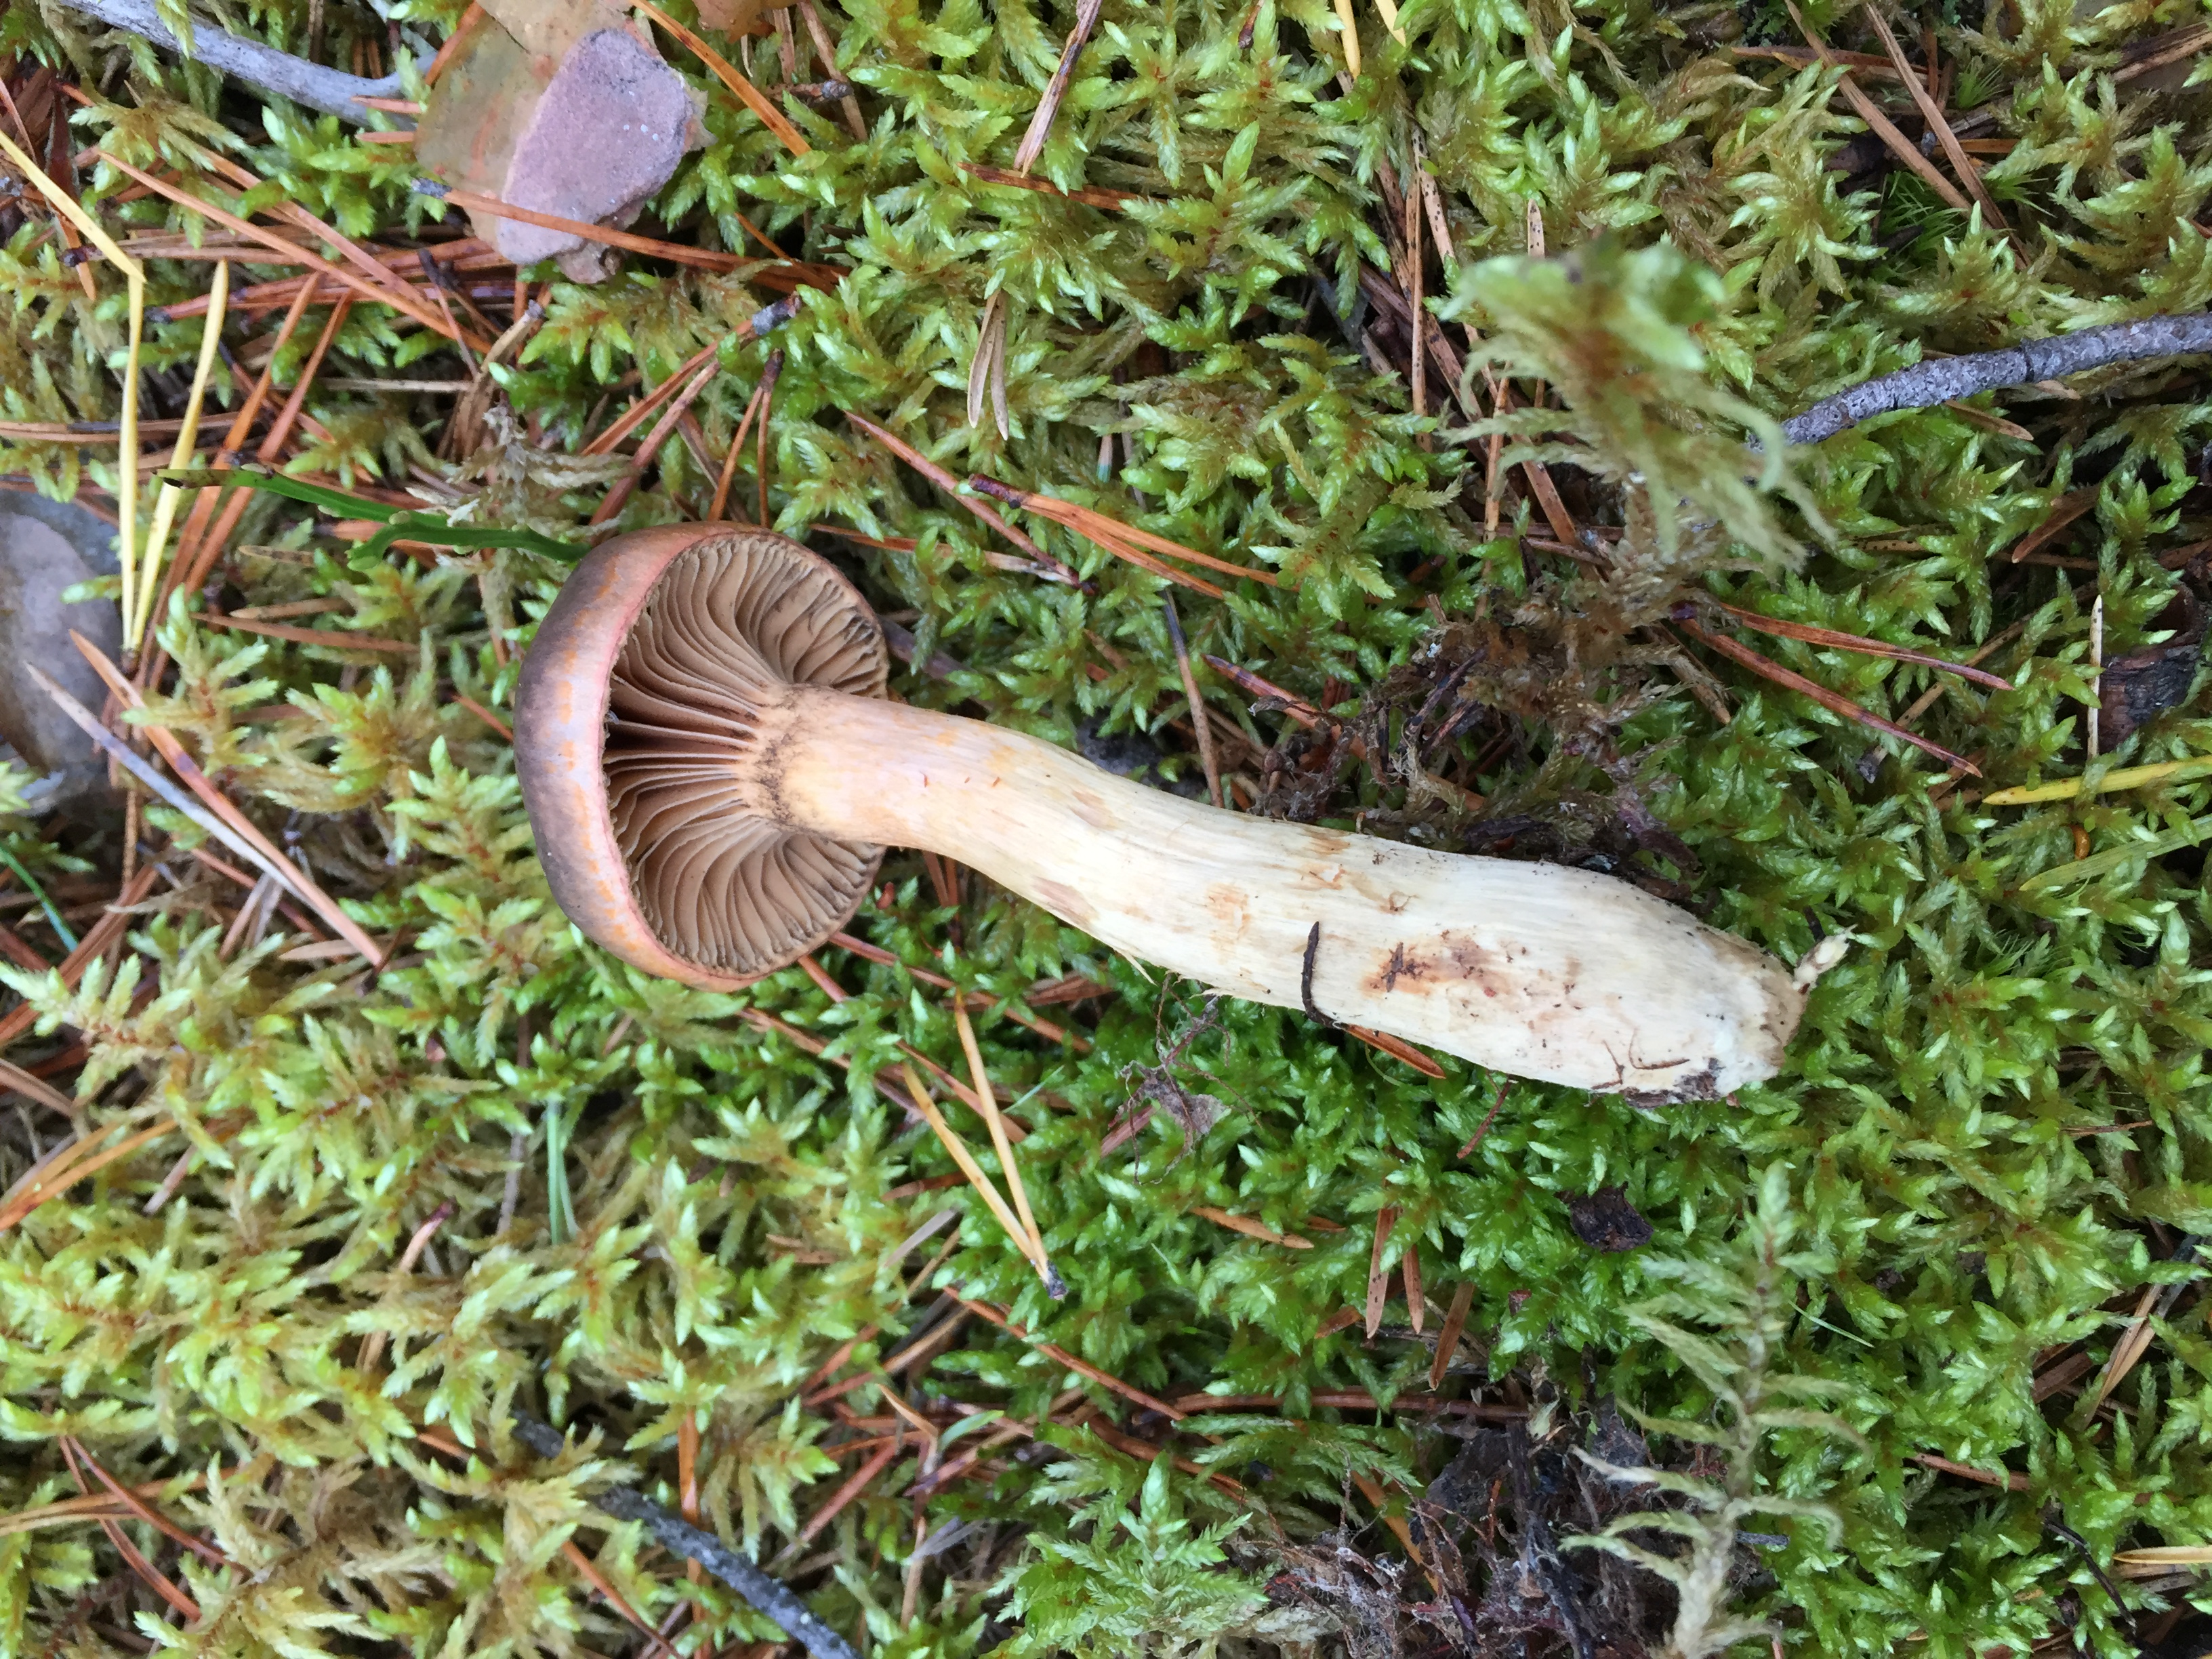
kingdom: Fungi
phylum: Basidiomycota
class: Agaricomycetes
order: Boletales
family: Gomphidiaceae
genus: Chroogomphus
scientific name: Chroogomphus rutilus
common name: Copper spike
